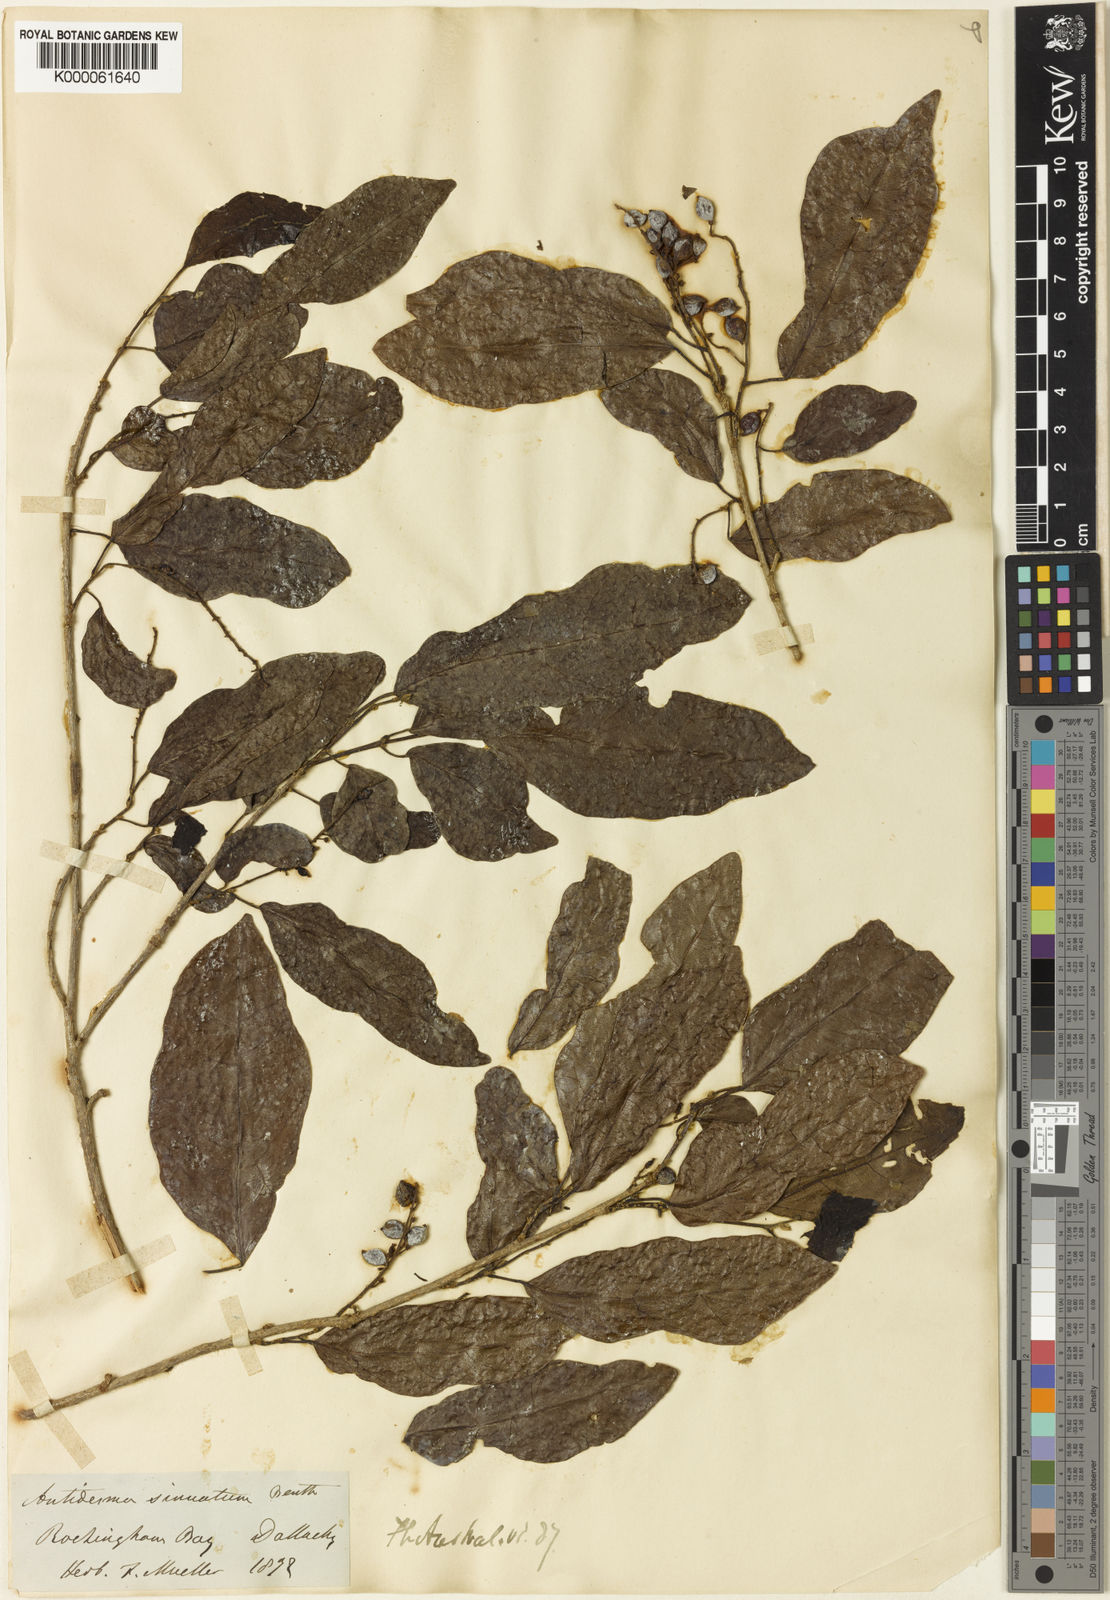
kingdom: Plantae
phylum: Tracheophyta
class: Magnoliopsida
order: Malpighiales
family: Phyllanthaceae
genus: Antidesma
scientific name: Antidesma sinuatum
